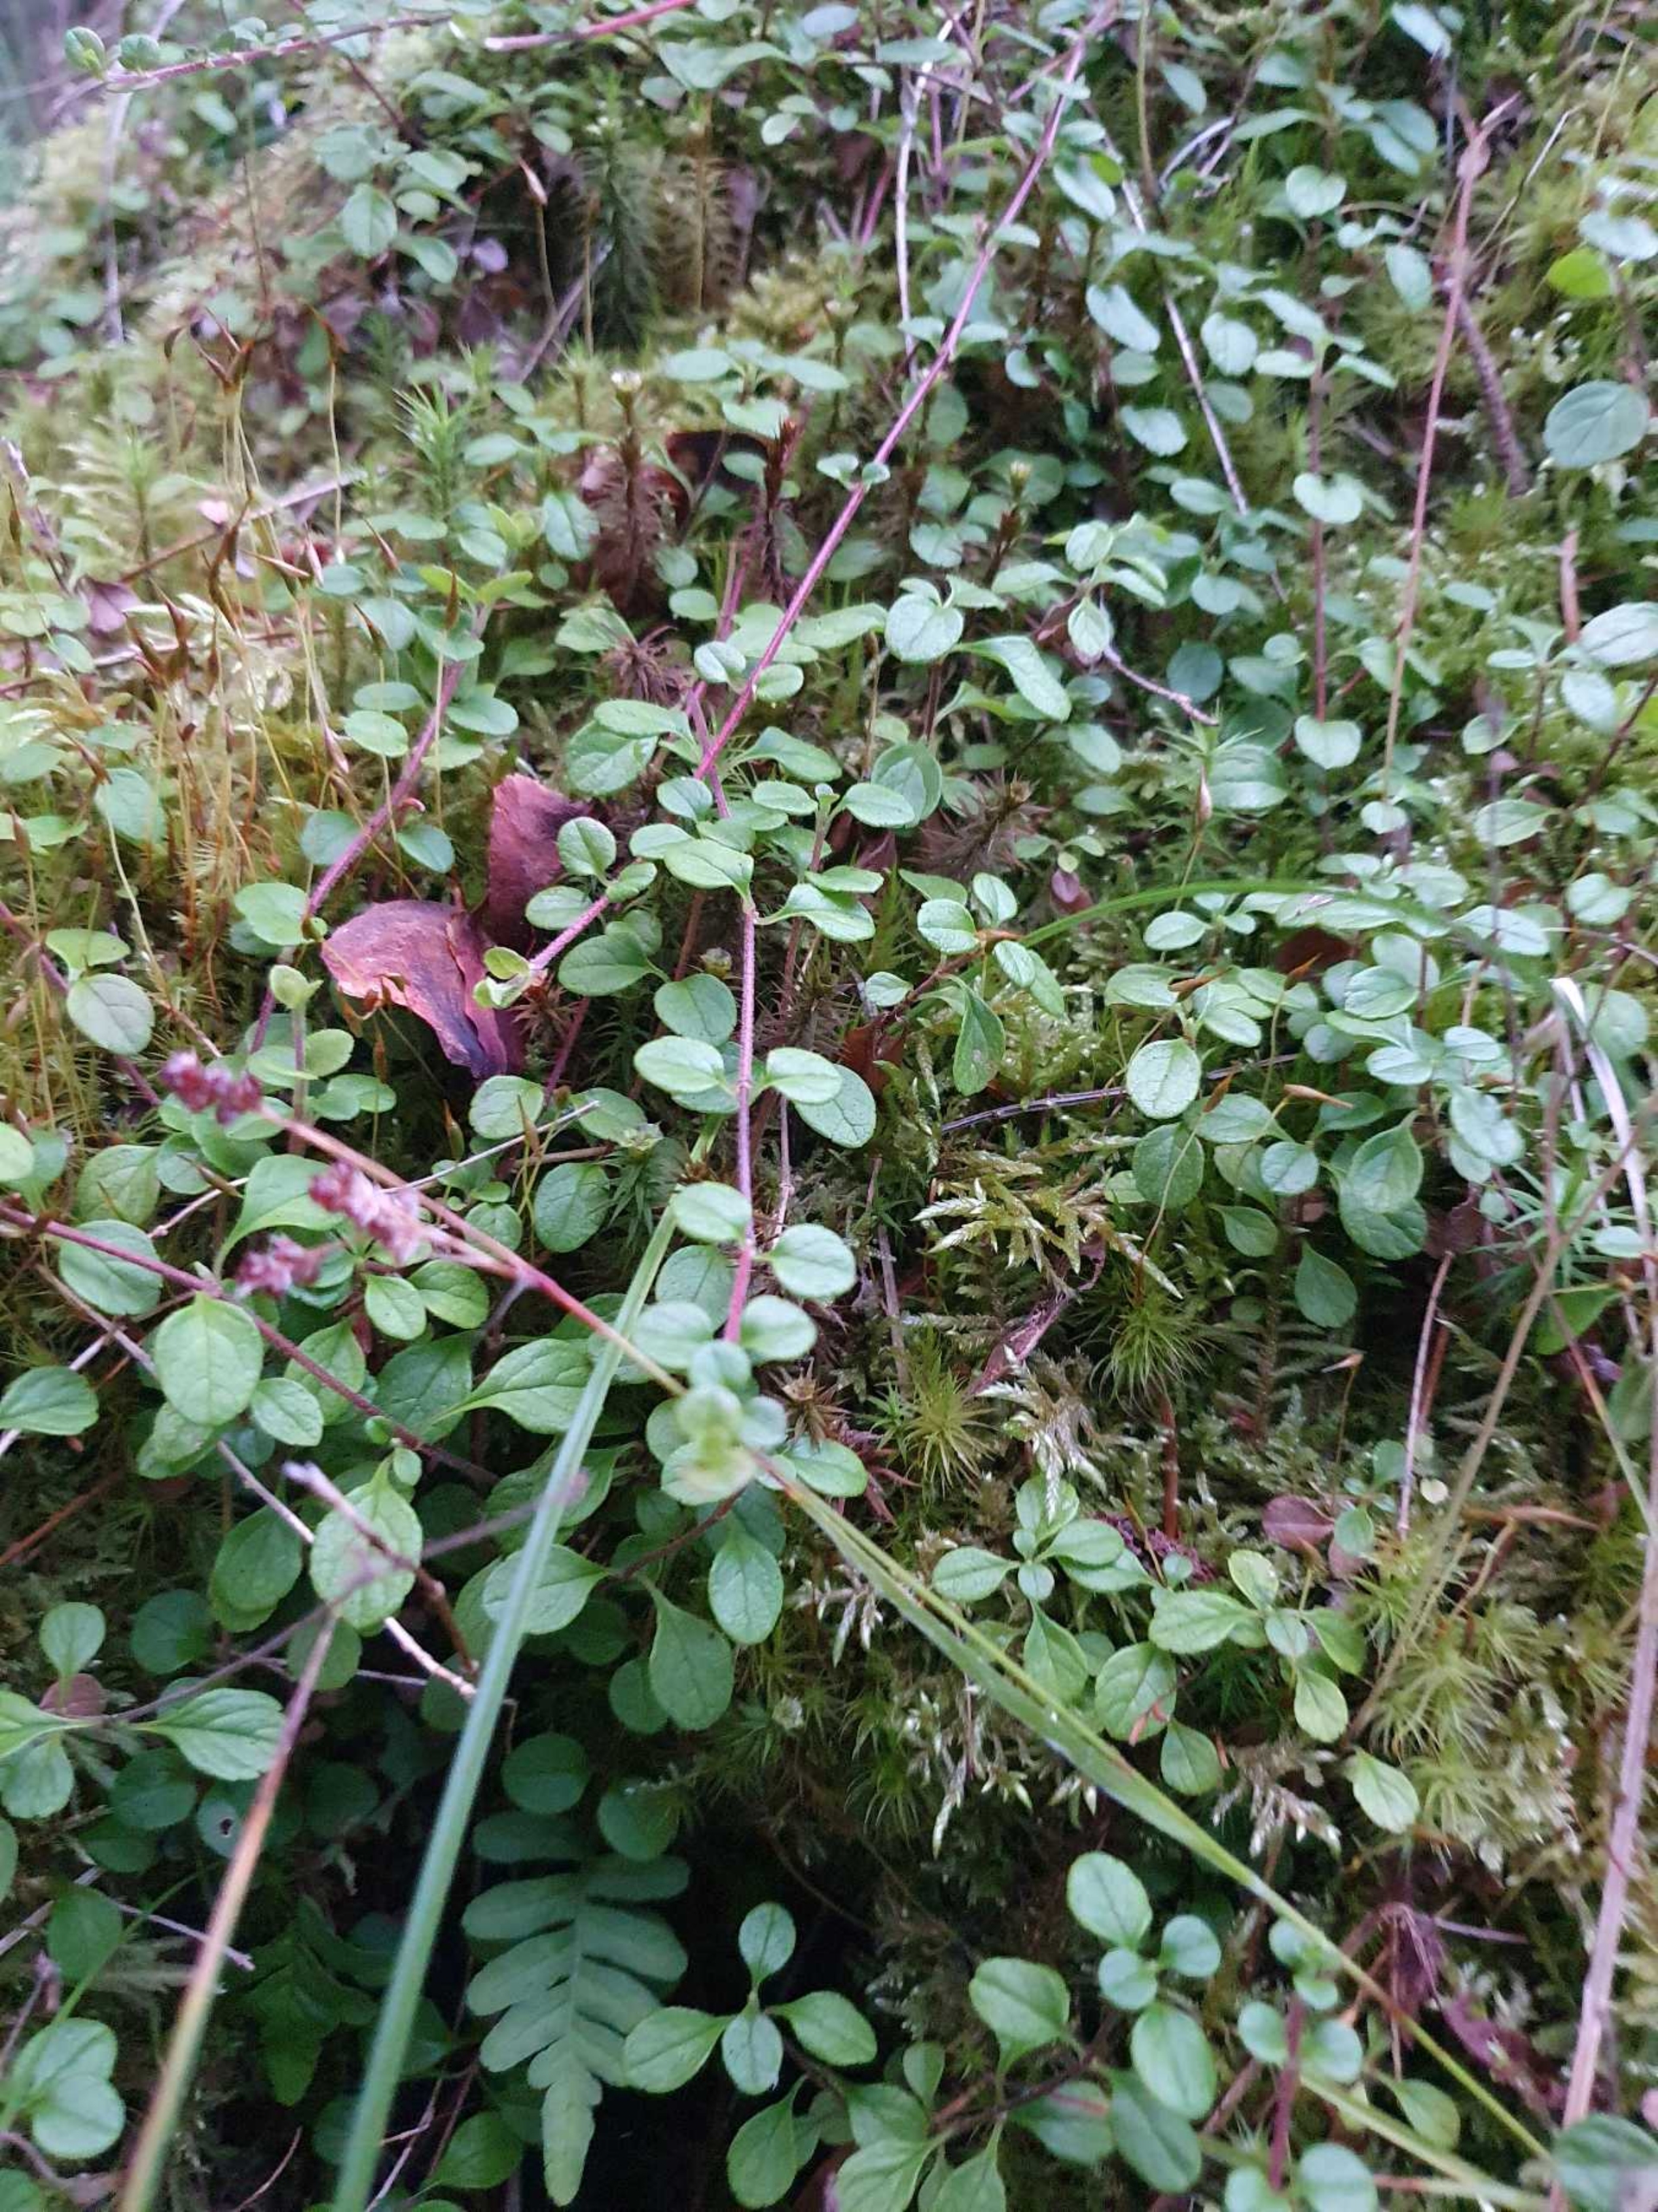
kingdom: Plantae
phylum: Tracheophyta
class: Magnoliopsida
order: Dipsacales
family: Caprifoliaceae
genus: Linnaea
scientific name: Linnaea borealis
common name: Linnæa
